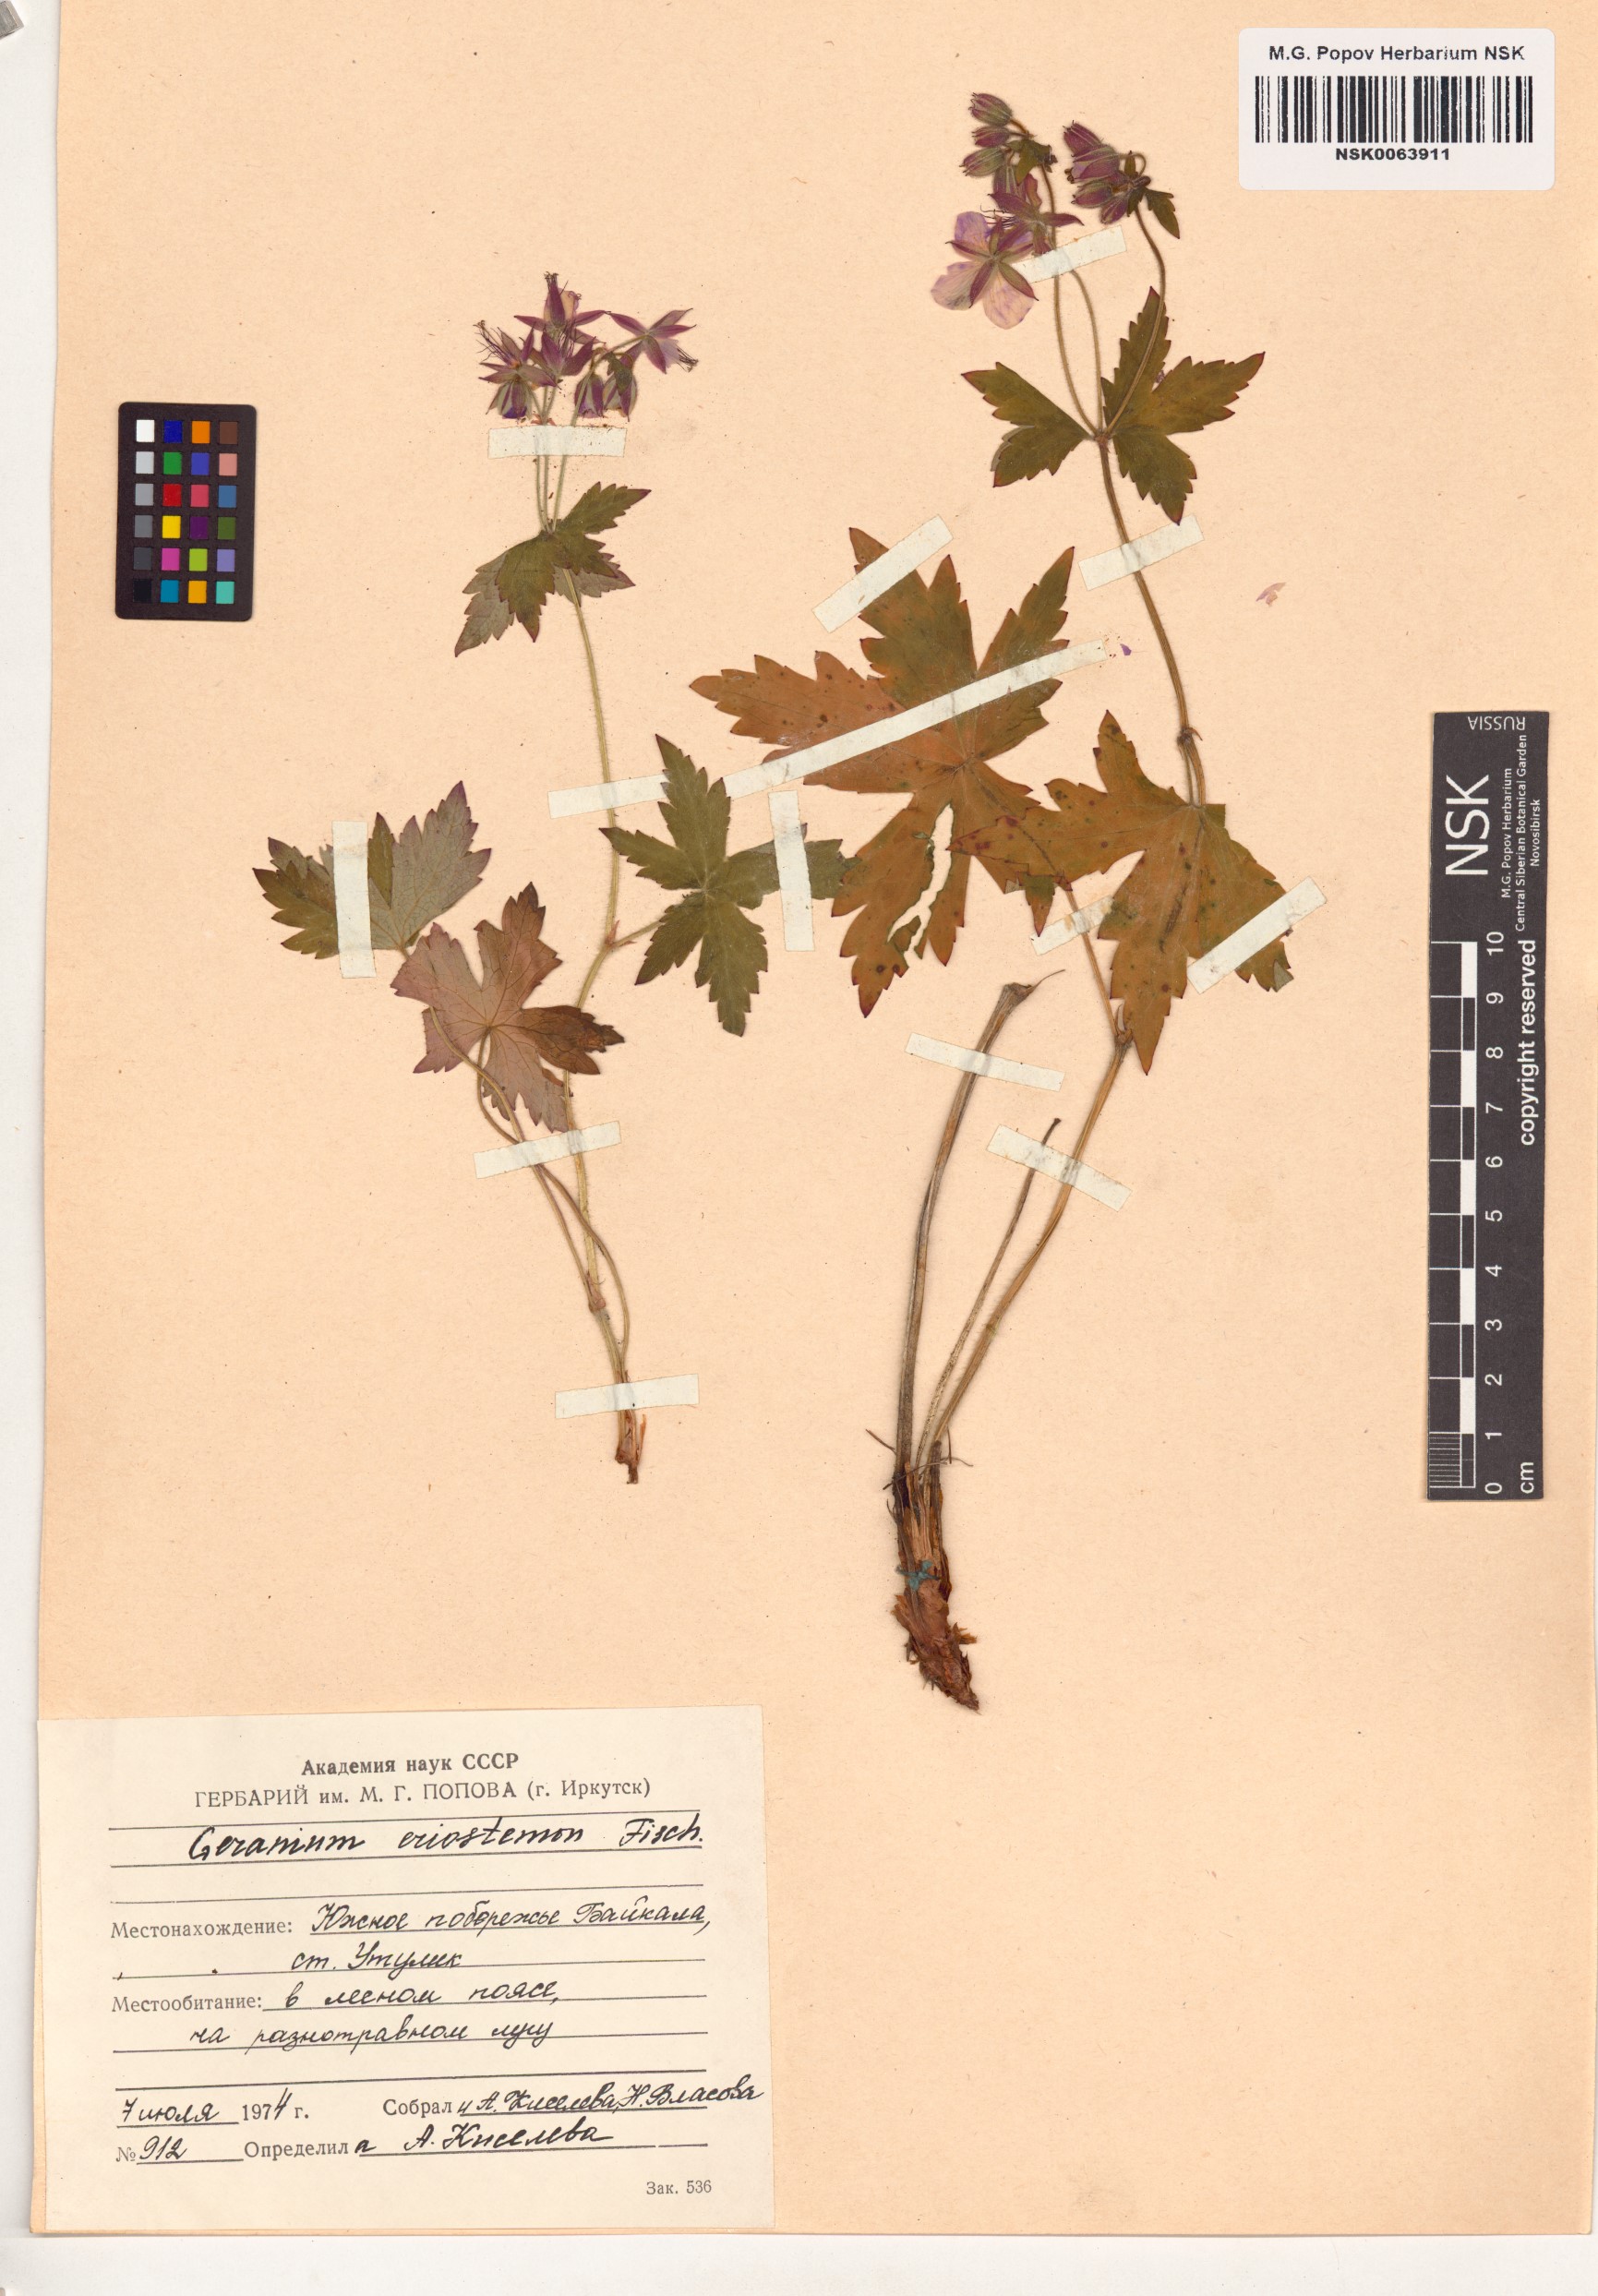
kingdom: Plantae
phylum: Tracheophyta
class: Magnoliopsida
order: Geraniales
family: Geraniaceae
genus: Geranium
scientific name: Geranium platyanthum
